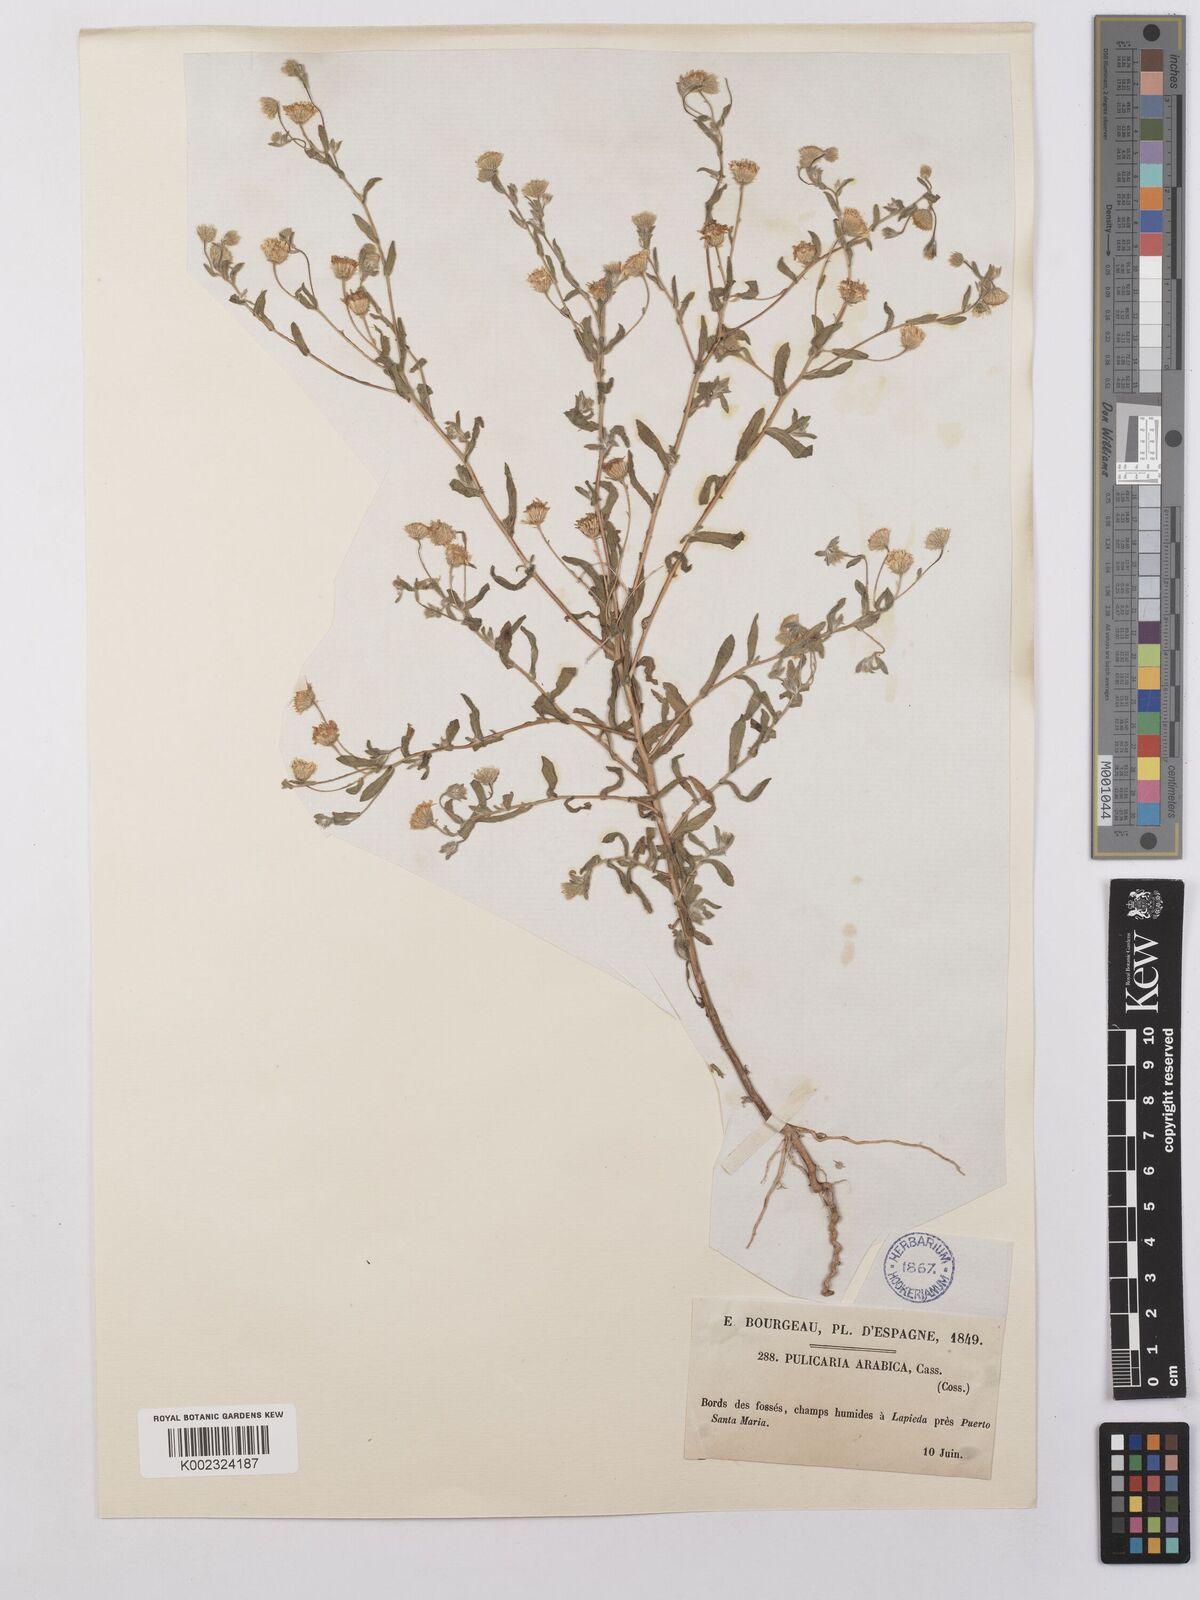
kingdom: Plantae
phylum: Tracheophyta
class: Magnoliopsida
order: Asterales
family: Asteraceae
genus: Pulicaria
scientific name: Pulicaria arabica
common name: Ladies' false fleabane
